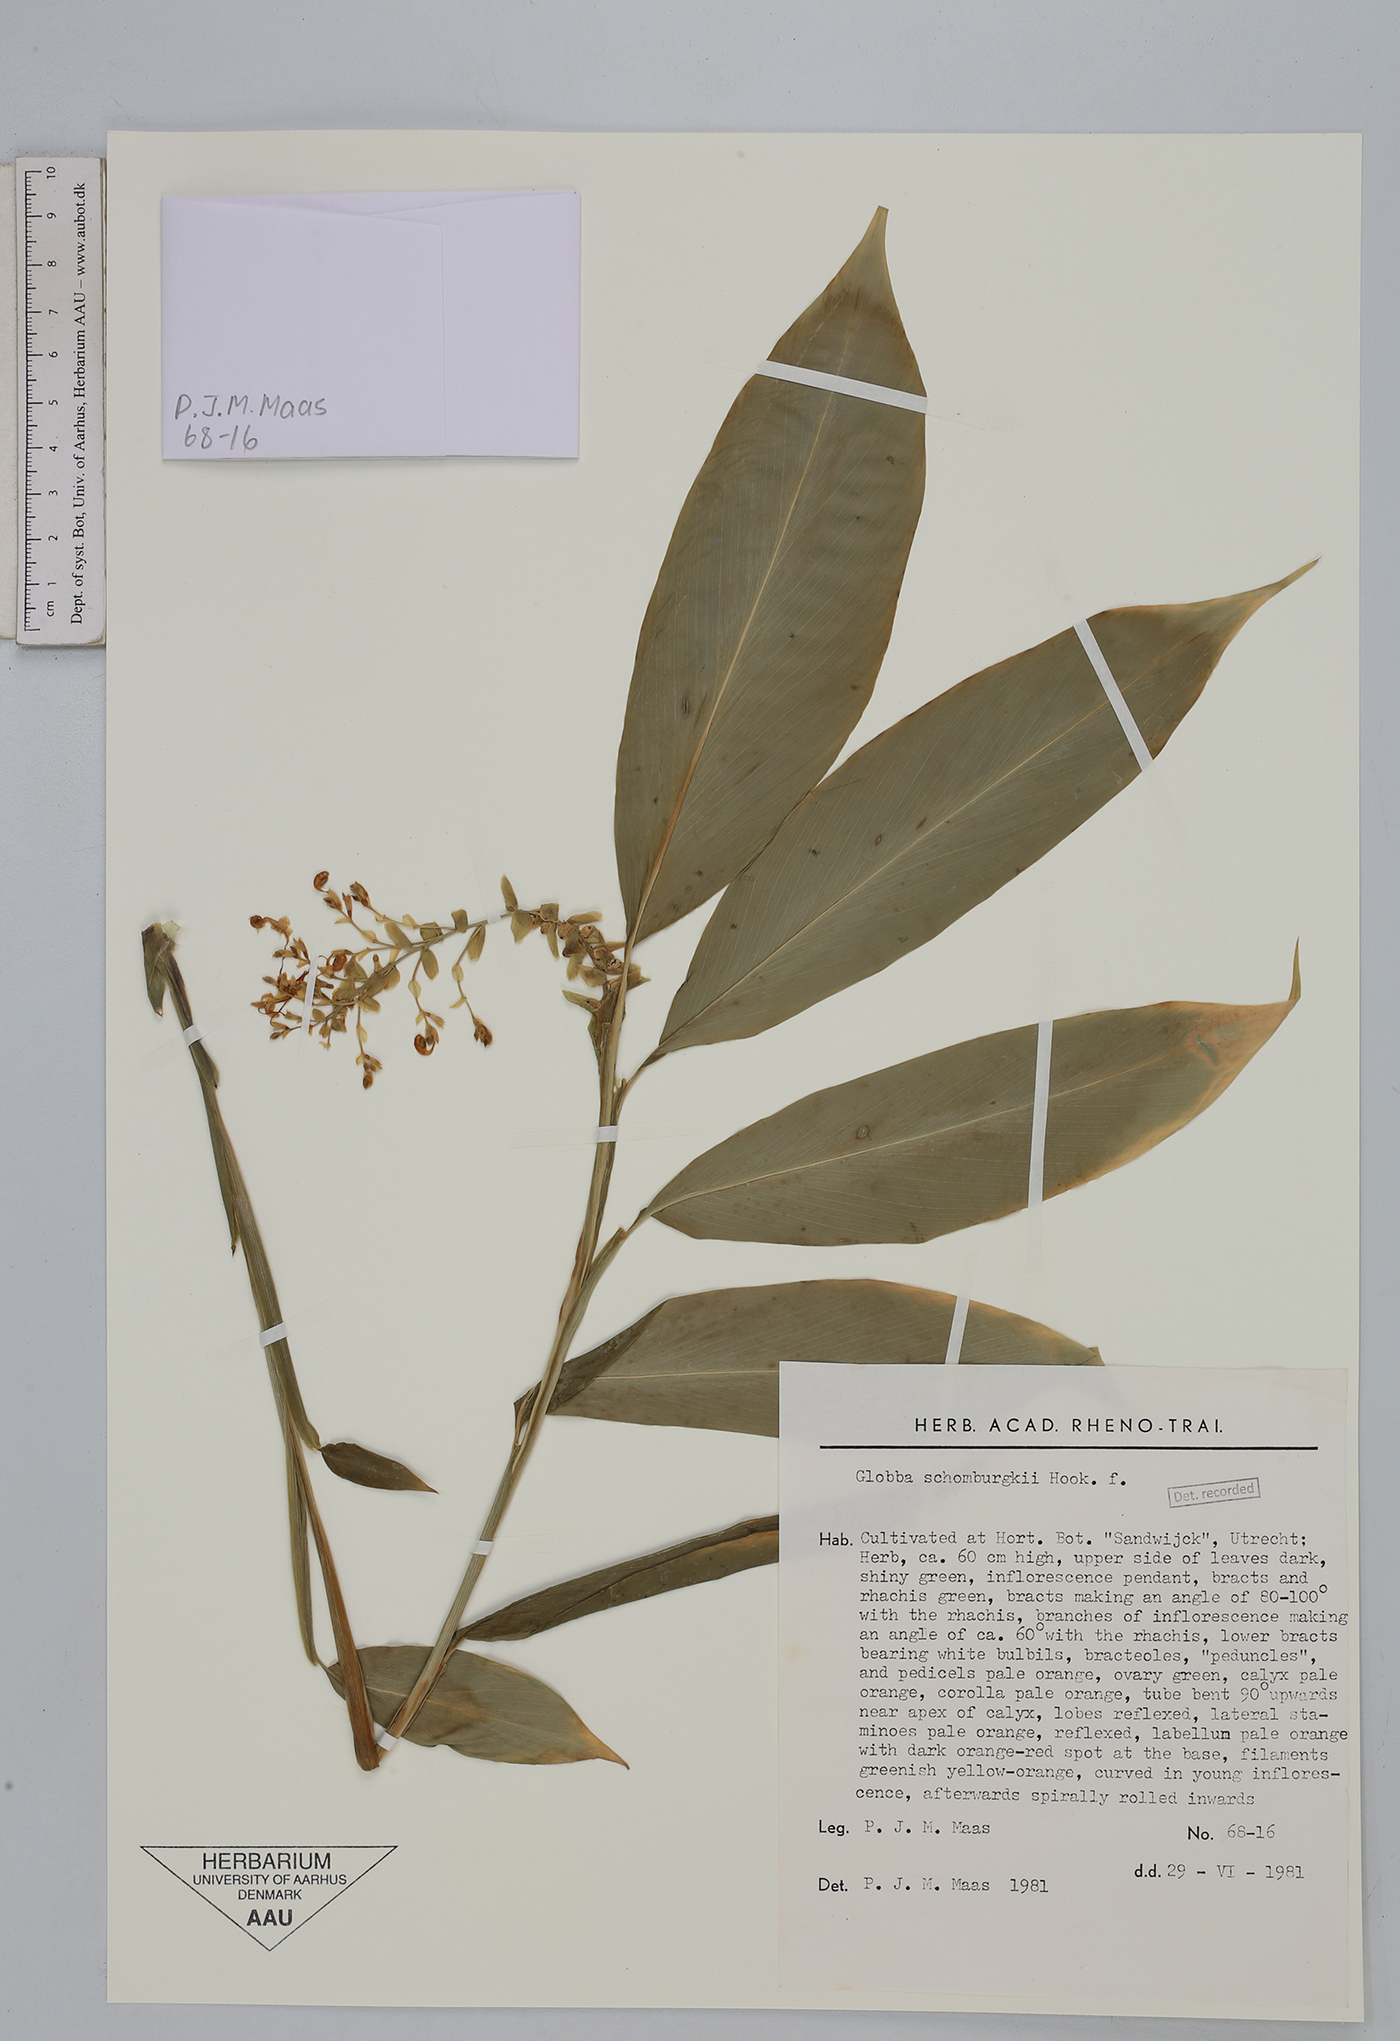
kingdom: Plantae
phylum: Tracheophyta
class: Liliopsida
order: Zingiberales
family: Zingiberaceae
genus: Globba
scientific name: Globba schomburgkii
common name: Dancing girl ginger
